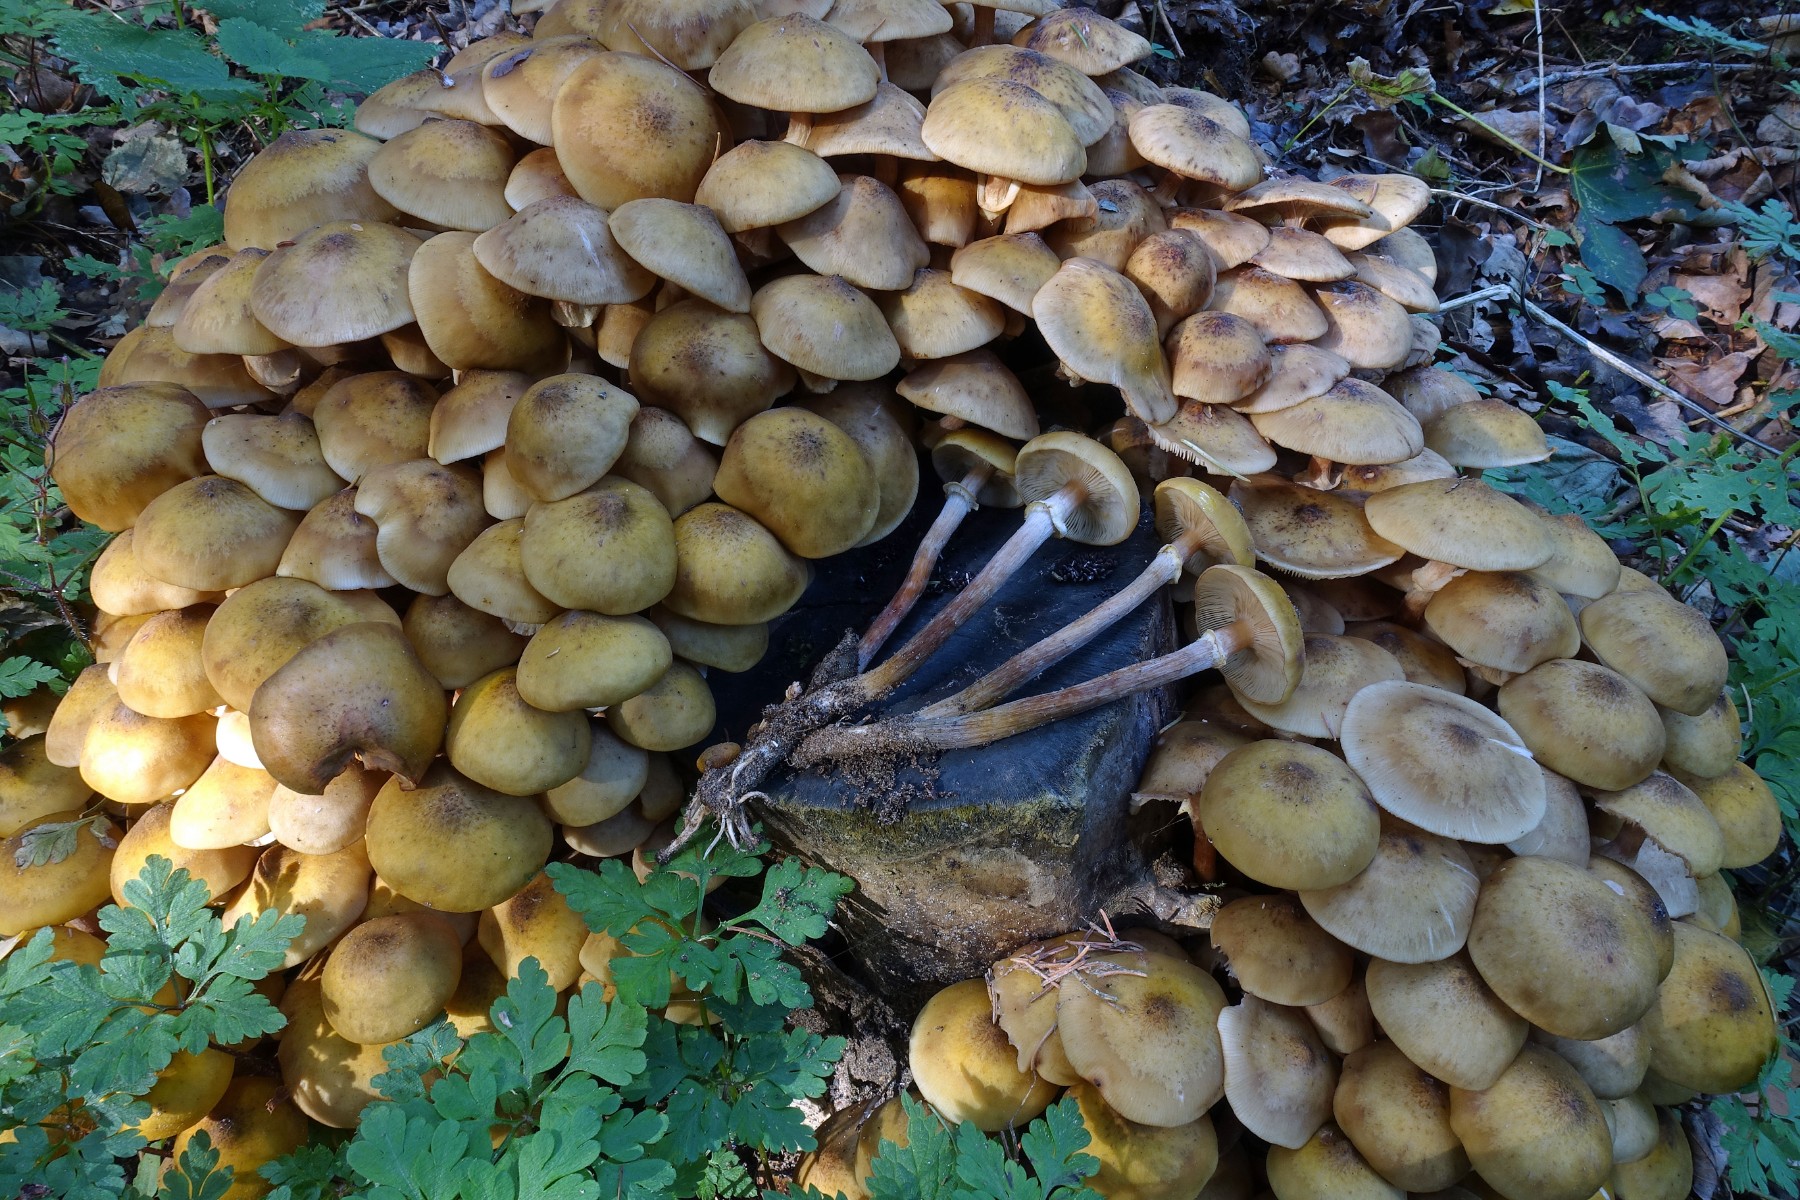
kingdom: Fungi
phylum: Basidiomycota
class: Agaricomycetes
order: Agaricales
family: Physalacriaceae
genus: Armillaria
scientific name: Armillaria mellea
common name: ægte honningsvamp
